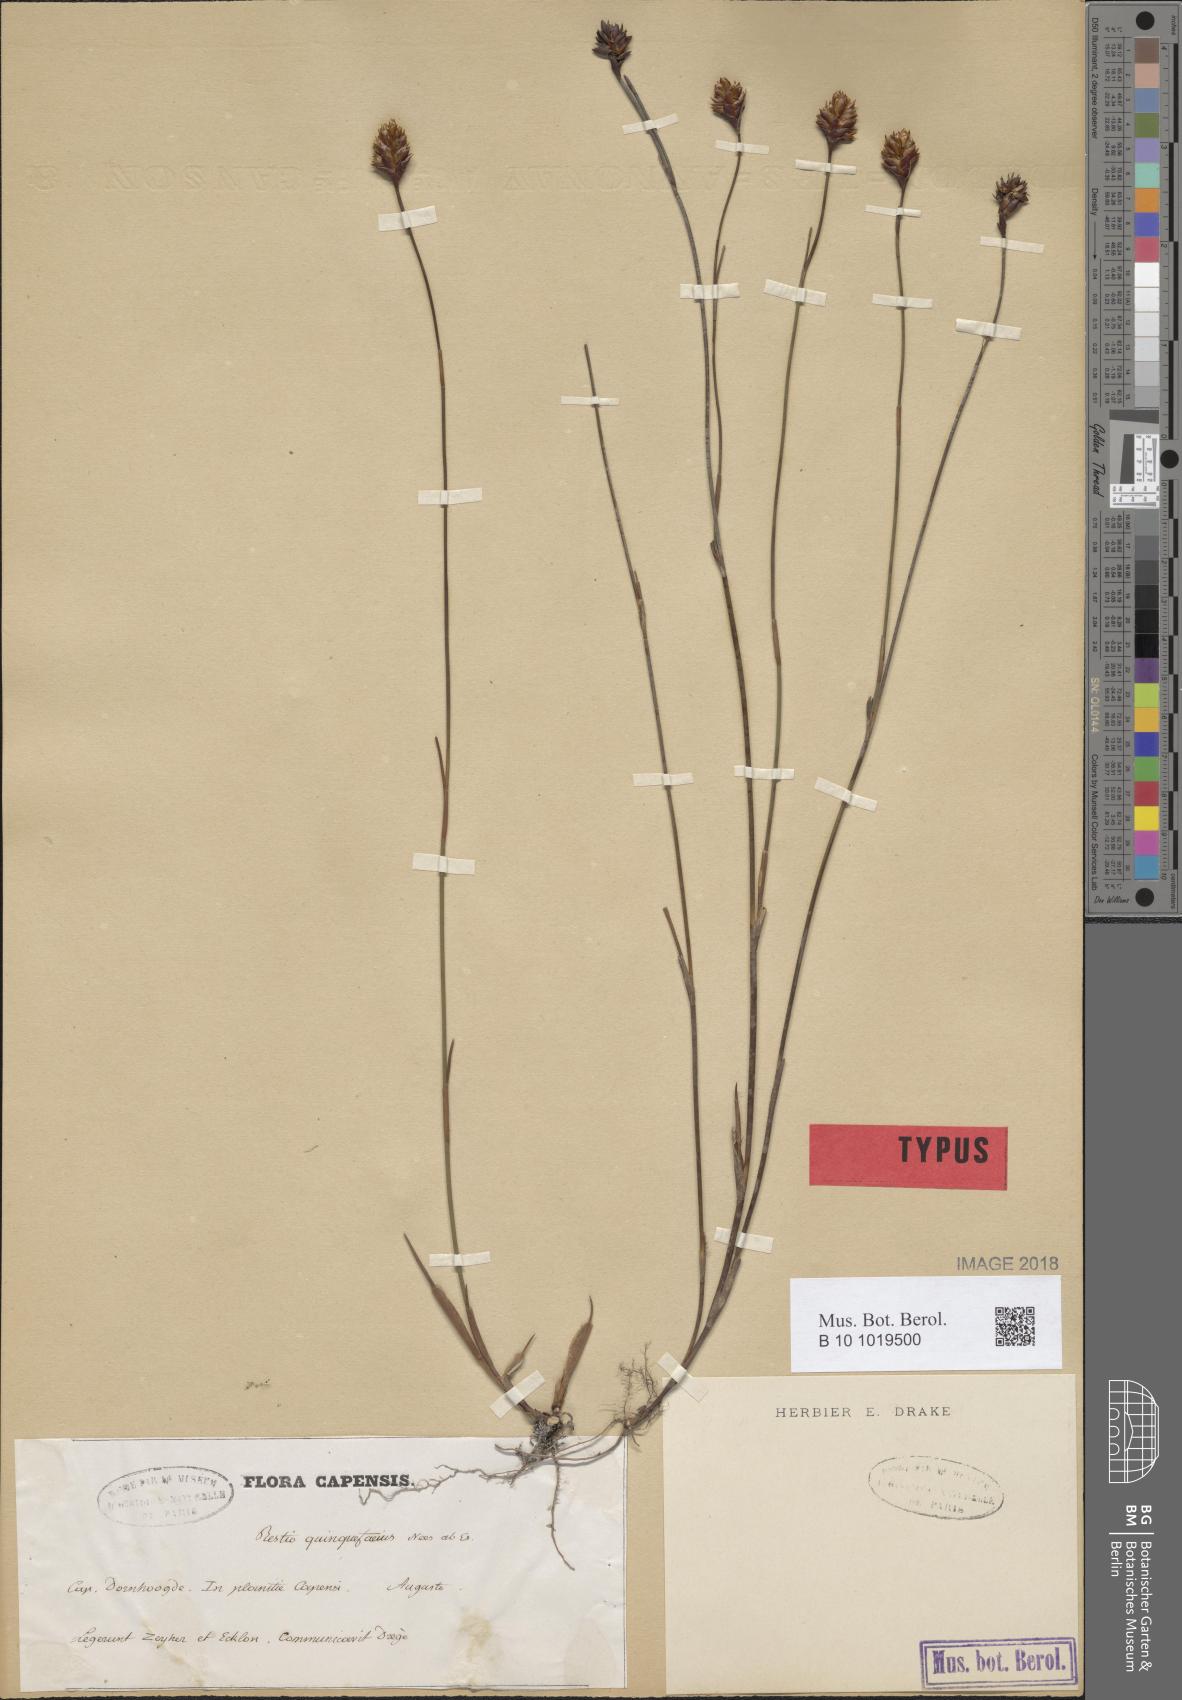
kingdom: Plantae
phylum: Tracheophyta
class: Liliopsida
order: Poales
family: Restionaceae
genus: Restio
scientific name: Restio quinquefarius
